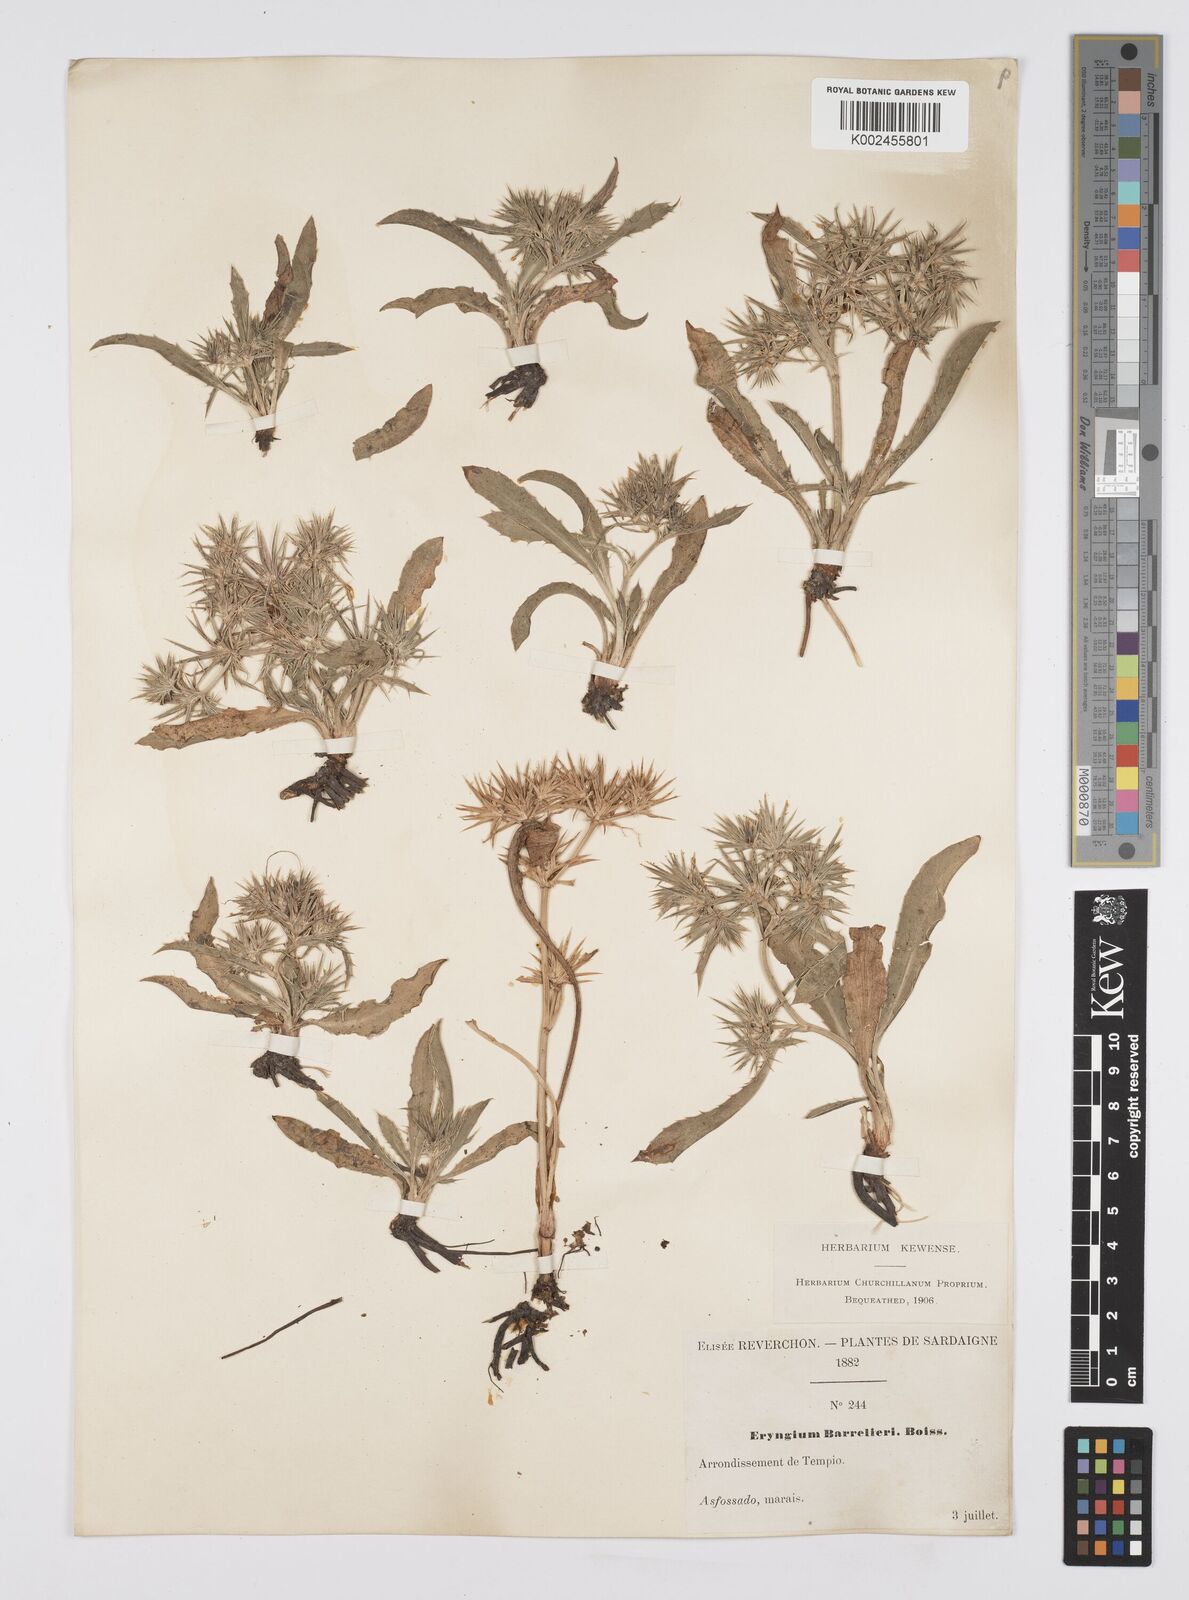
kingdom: Plantae
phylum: Tracheophyta
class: Magnoliopsida
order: Apiales
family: Apiaceae
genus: Eryngium
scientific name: Eryngium pusillum
